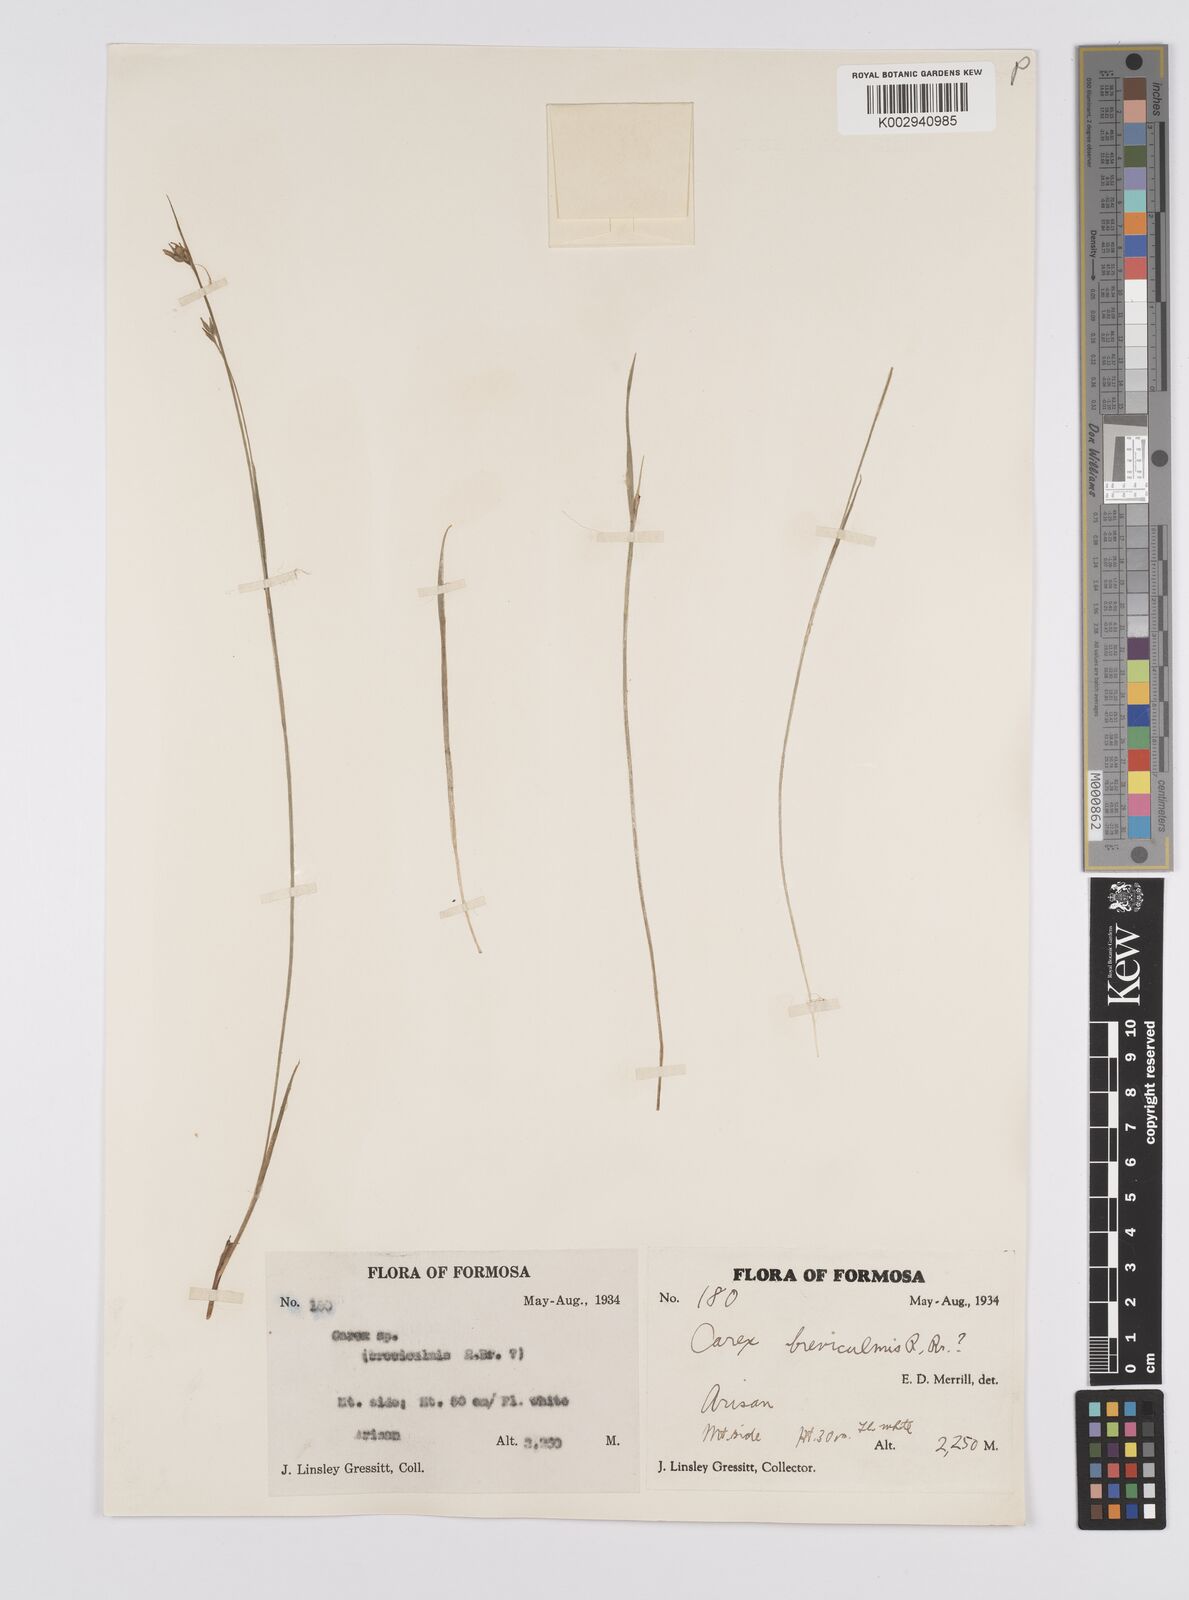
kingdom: Plantae
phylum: Tracheophyta
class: Liliopsida
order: Poales
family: Cyperaceae
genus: Carex
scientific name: Carex breviculmis
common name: Asian shortstem sedge
